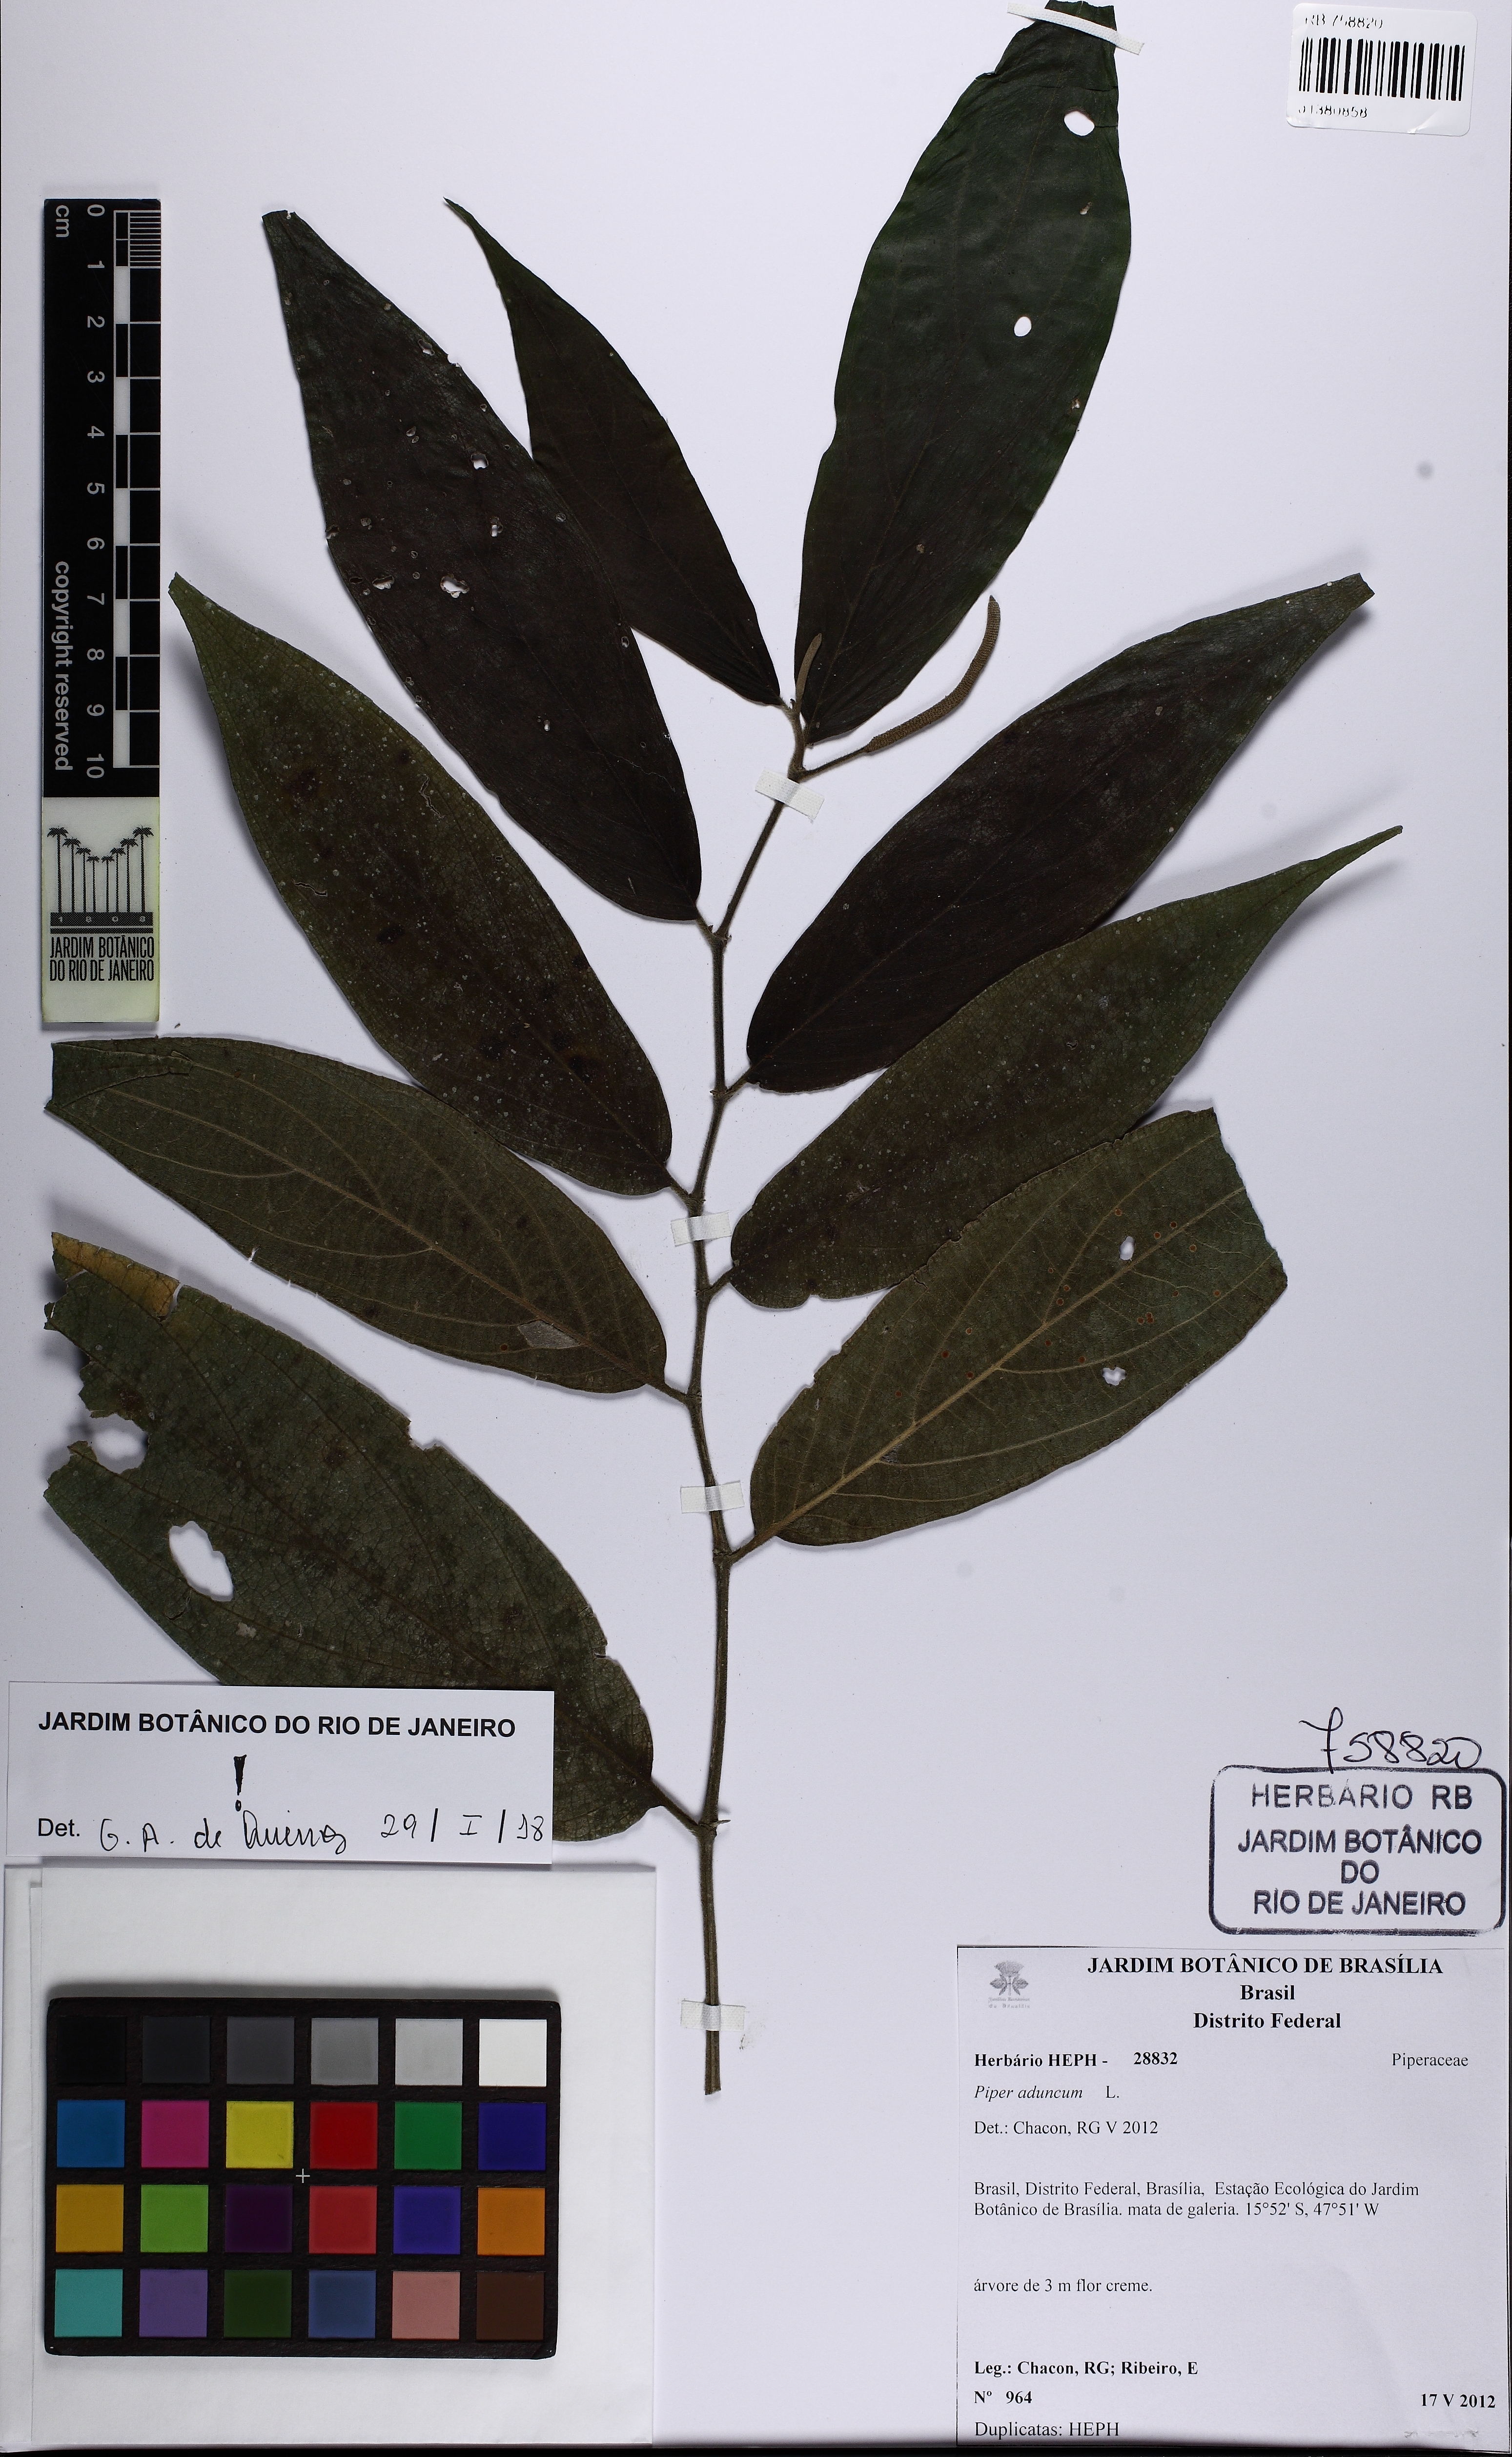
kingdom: Plantae
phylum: Tracheophyta
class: Magnoliopsida
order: Piperales
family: Piperaceae
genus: Piper
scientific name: Piper aduncum
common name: Spiked pepper
